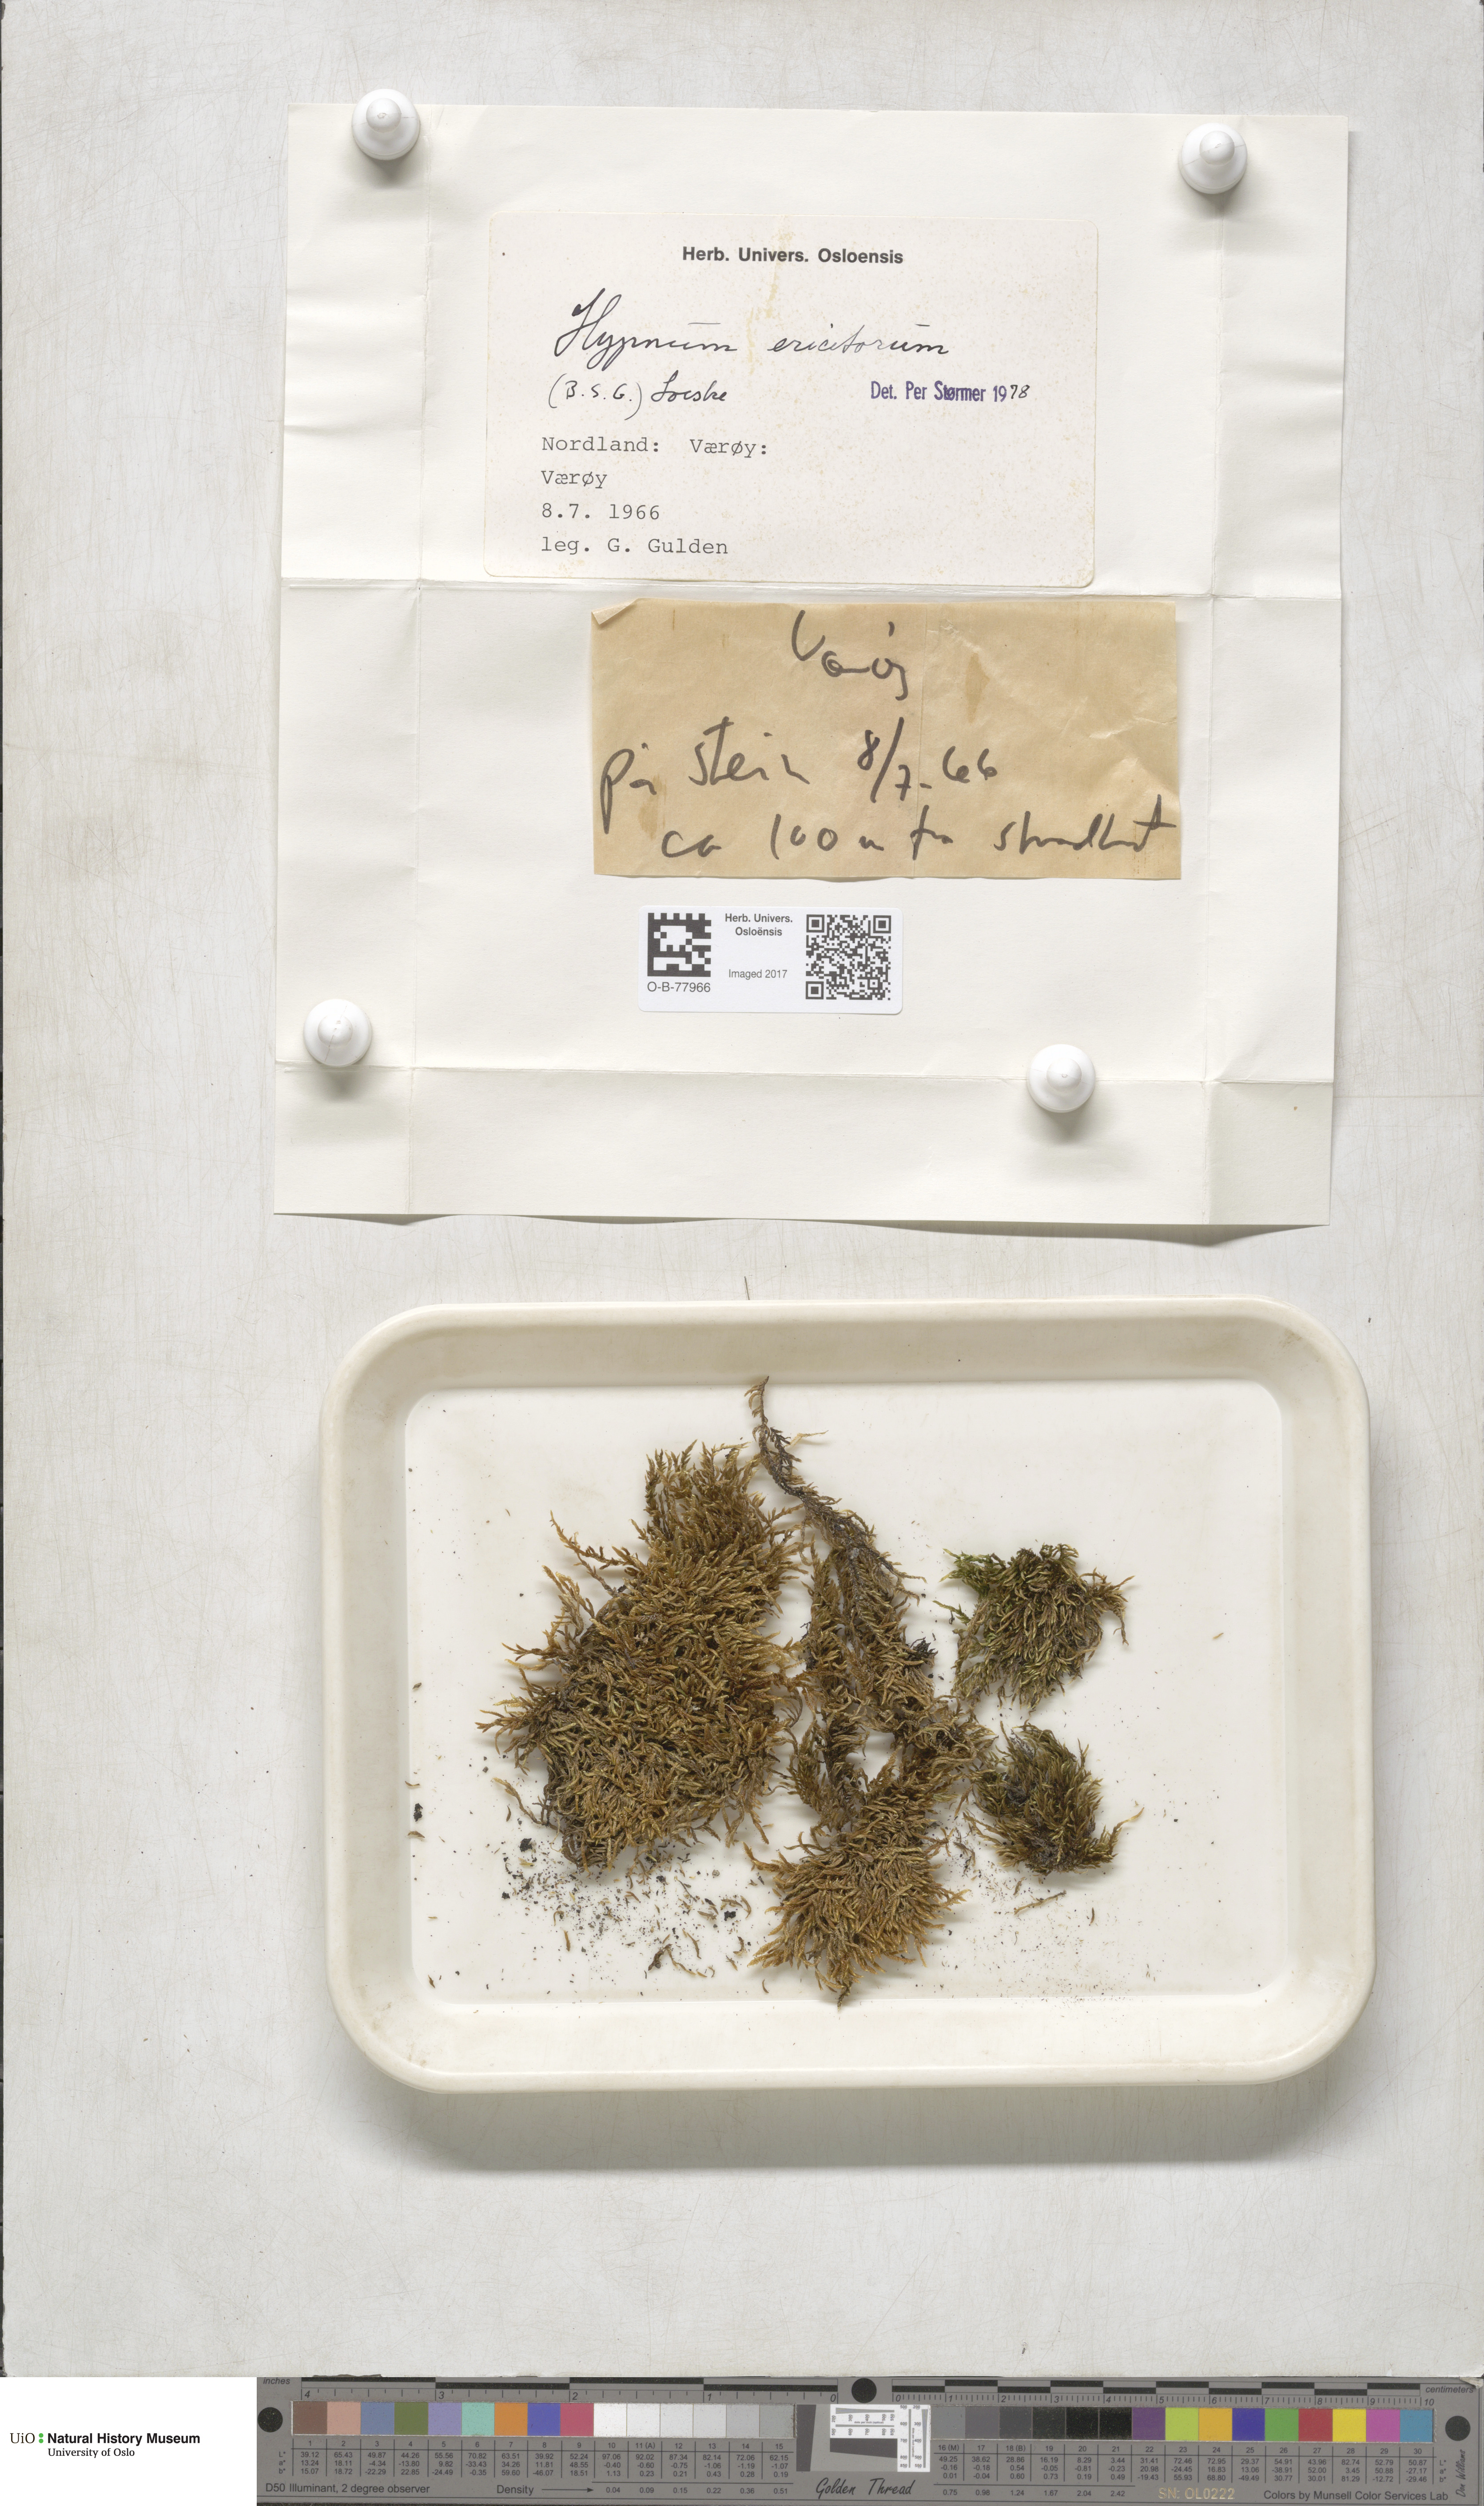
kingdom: Plantae
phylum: Bryophyta
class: Bryopsida
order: Hypnales
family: Hypnaceae
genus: Hypnum
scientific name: Hypnum jutlandicum
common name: Heath plait-moss
